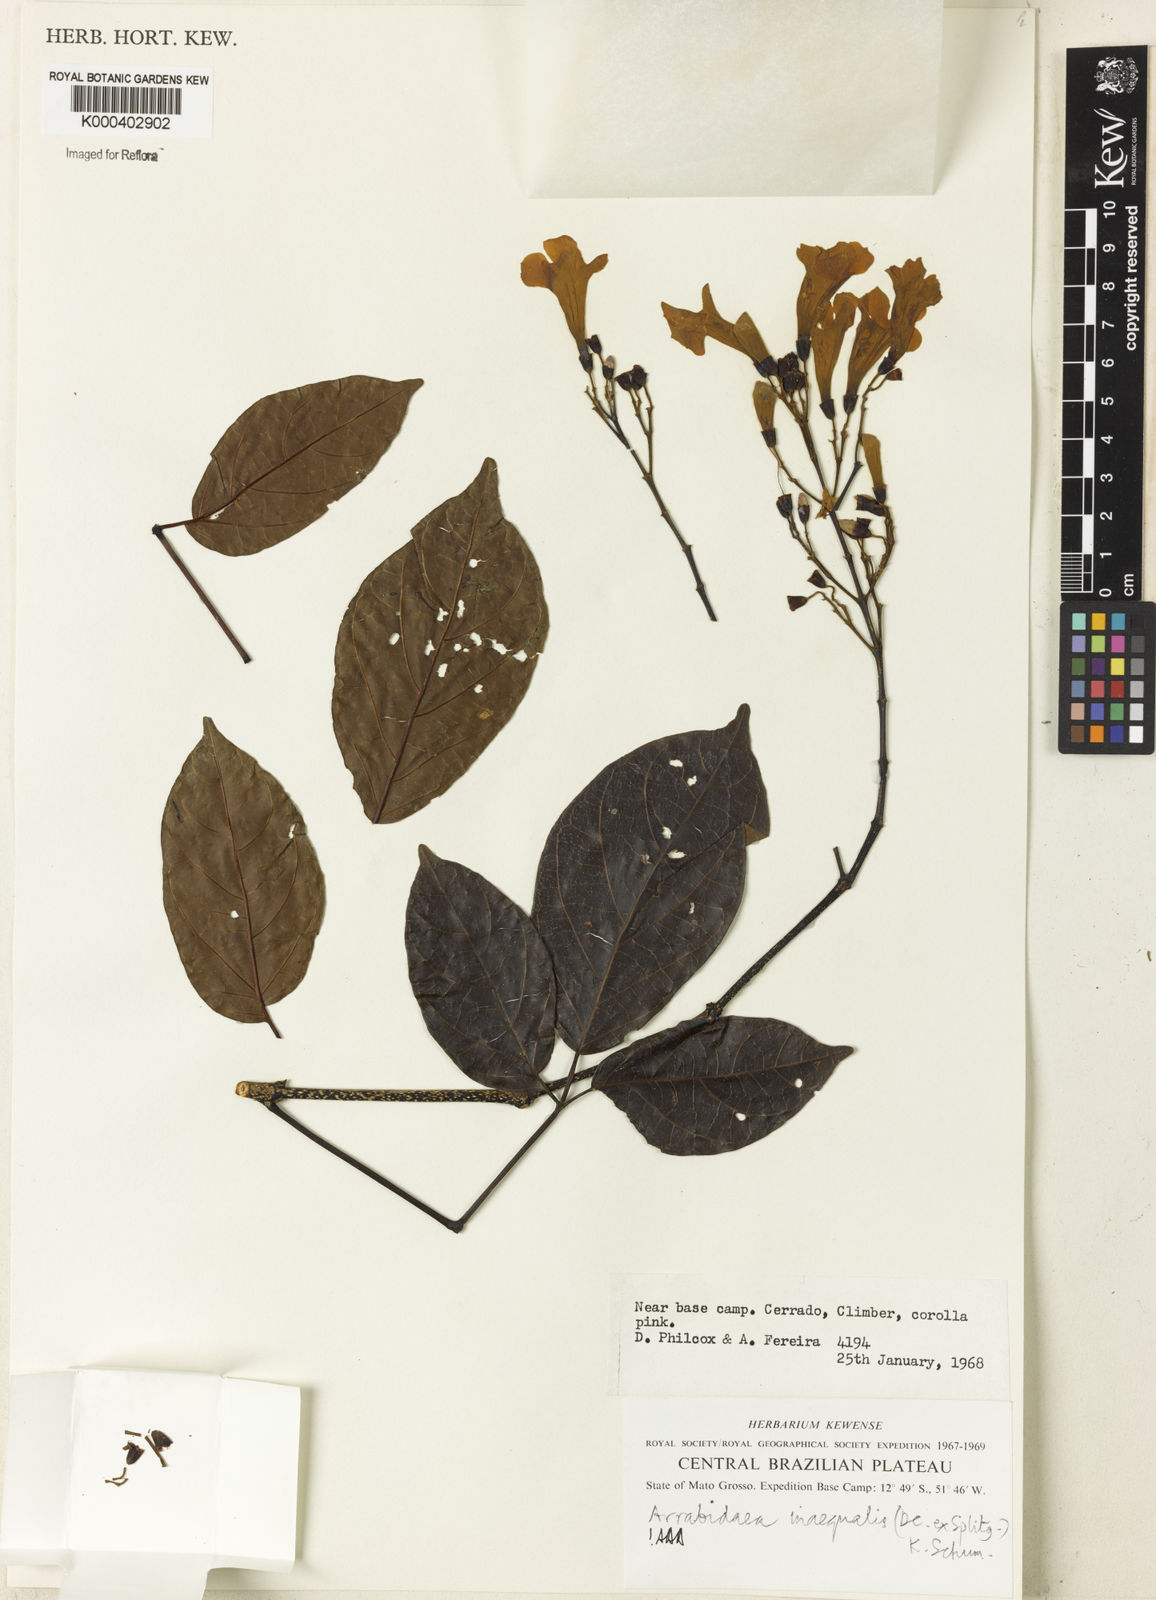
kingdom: Plantae
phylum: Tracheophyta
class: Magnoliopsida
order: Lamiales
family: Bignoniaceae
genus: Cuspidaria
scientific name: Cuspidaria inaequalis
